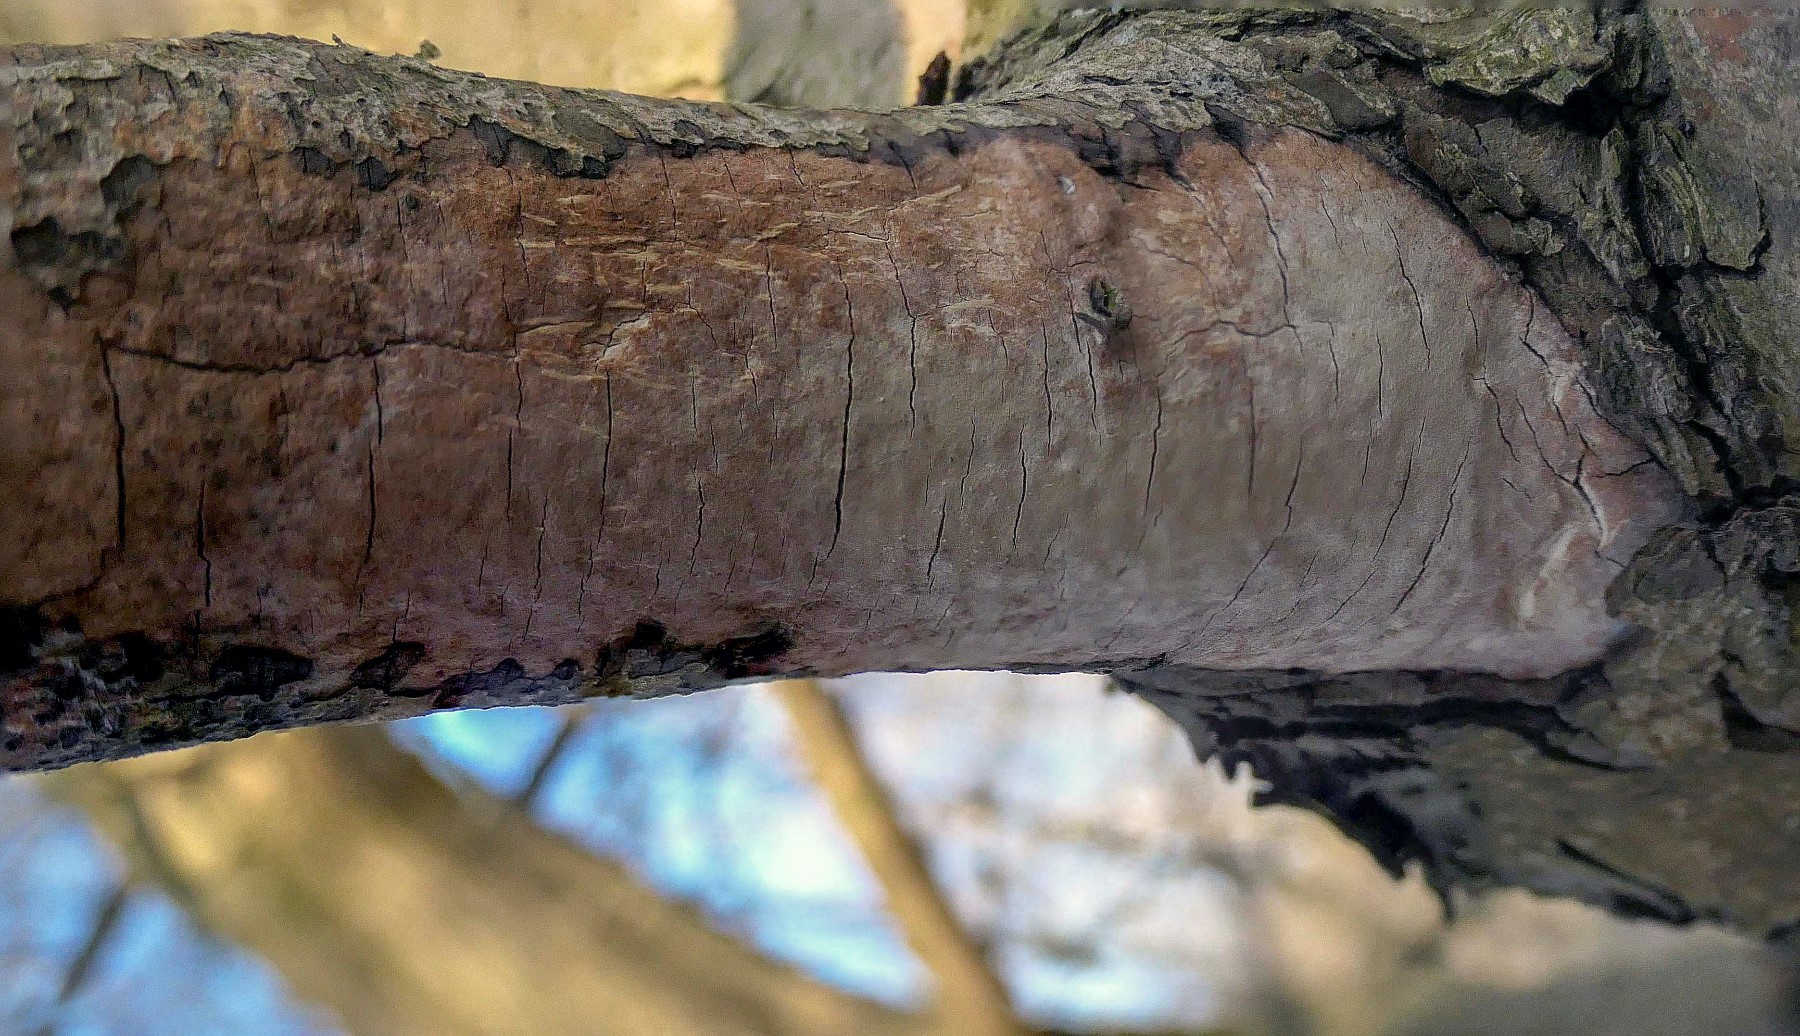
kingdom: Fungi
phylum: Basidiomycota
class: Agaricomycetes
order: Corticiales
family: Vuilleminiaceae
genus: Vuilleminia
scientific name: Vuilleminia cystidiata
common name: tjørne-barksprænger
